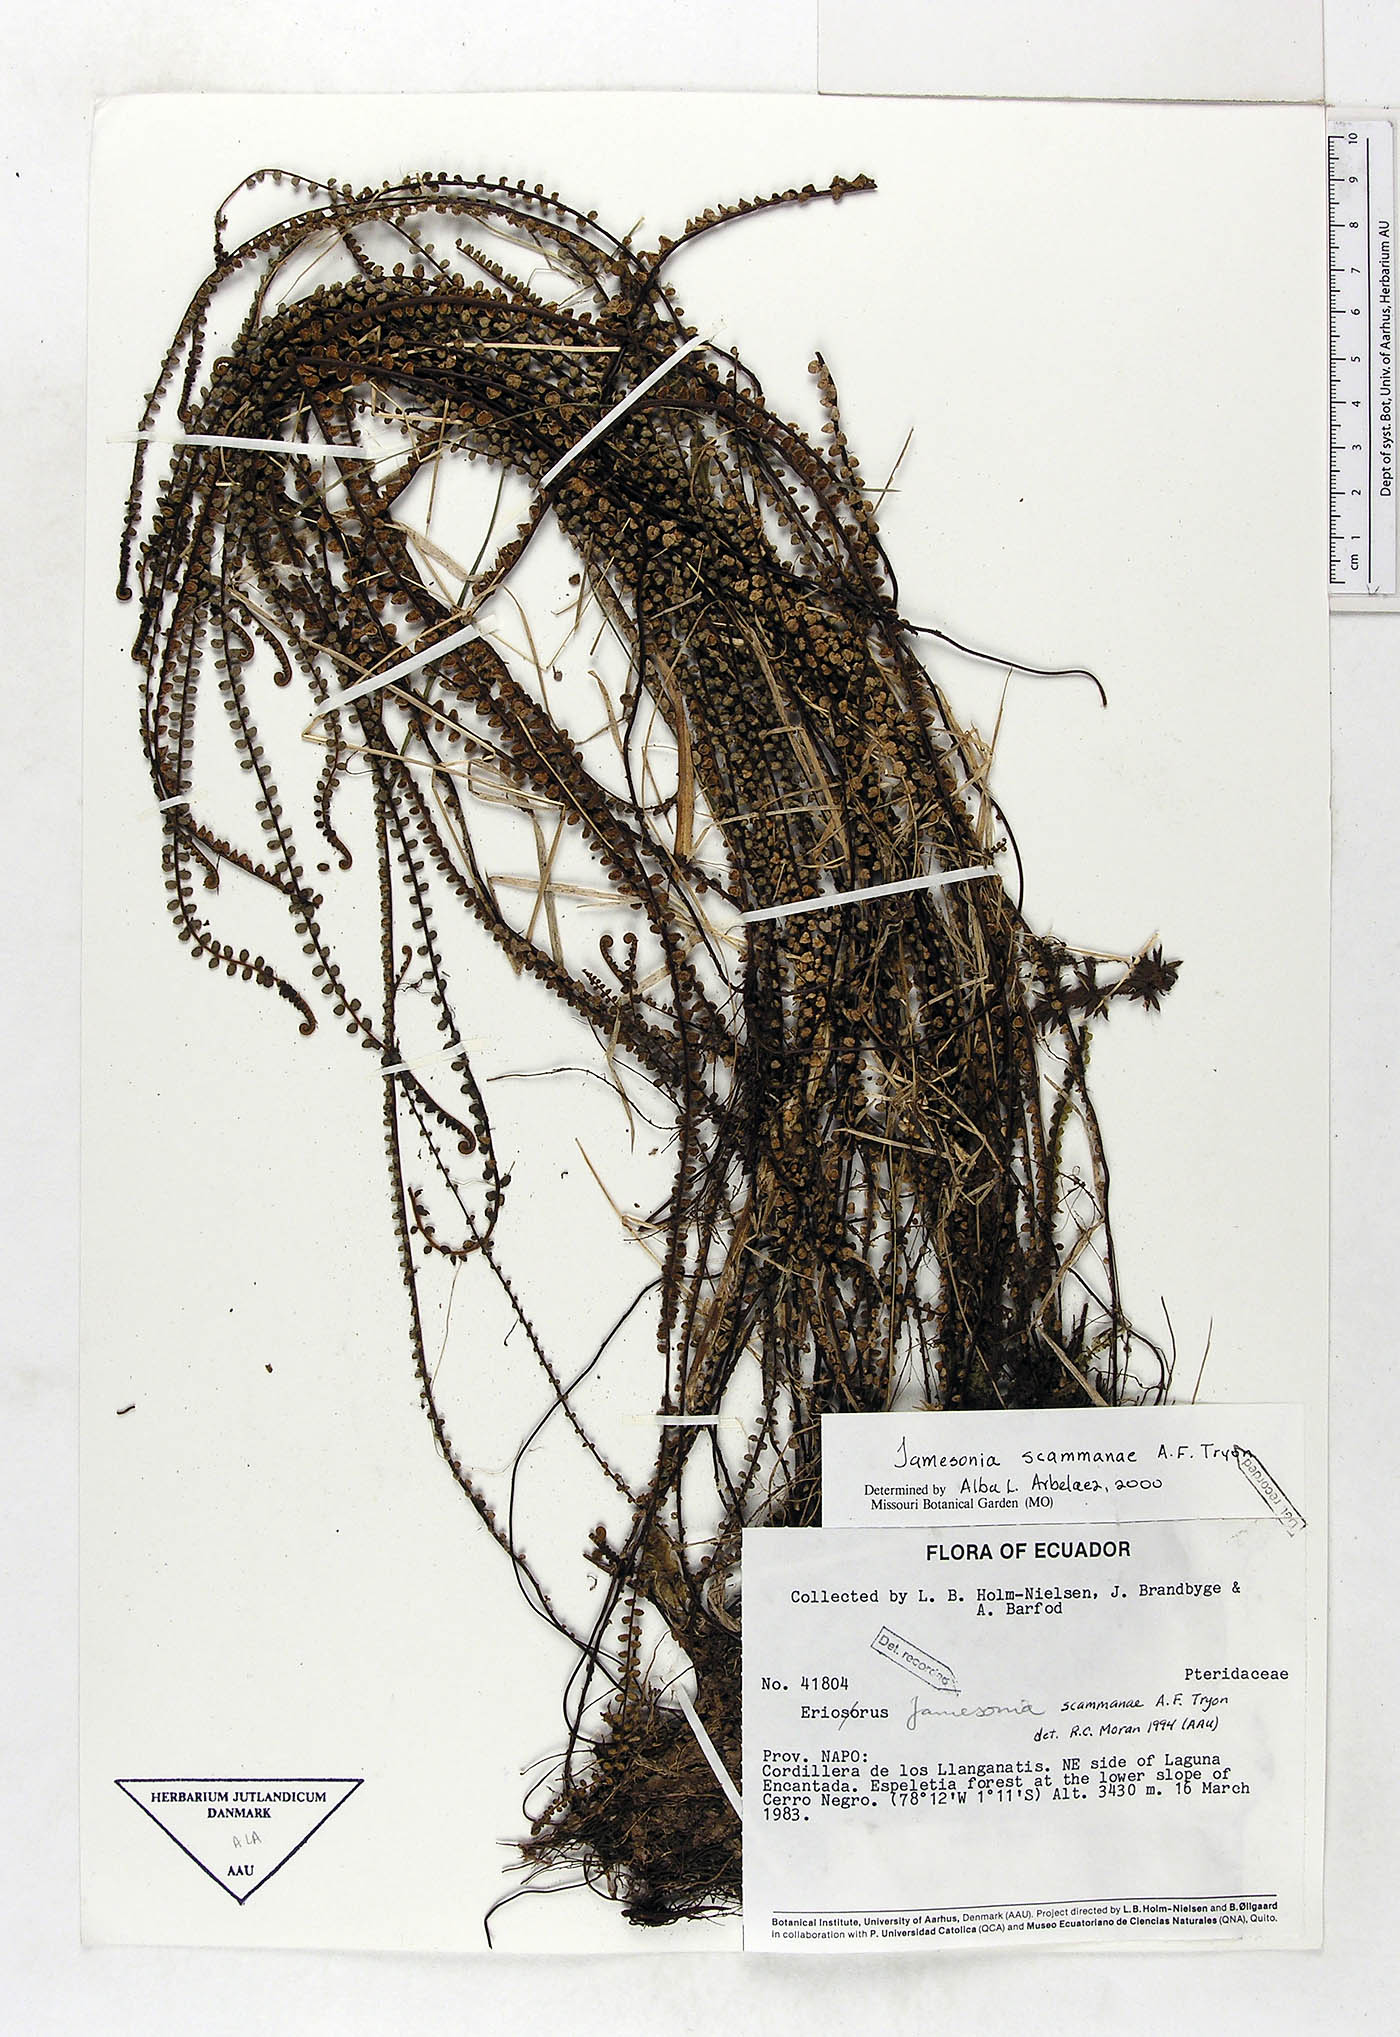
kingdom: Plantae
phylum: Tracheophyta
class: Polypodiopsida
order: Polypodiales
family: Pteridaceae
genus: Jamesonia
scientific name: Jamesonia scammanae
